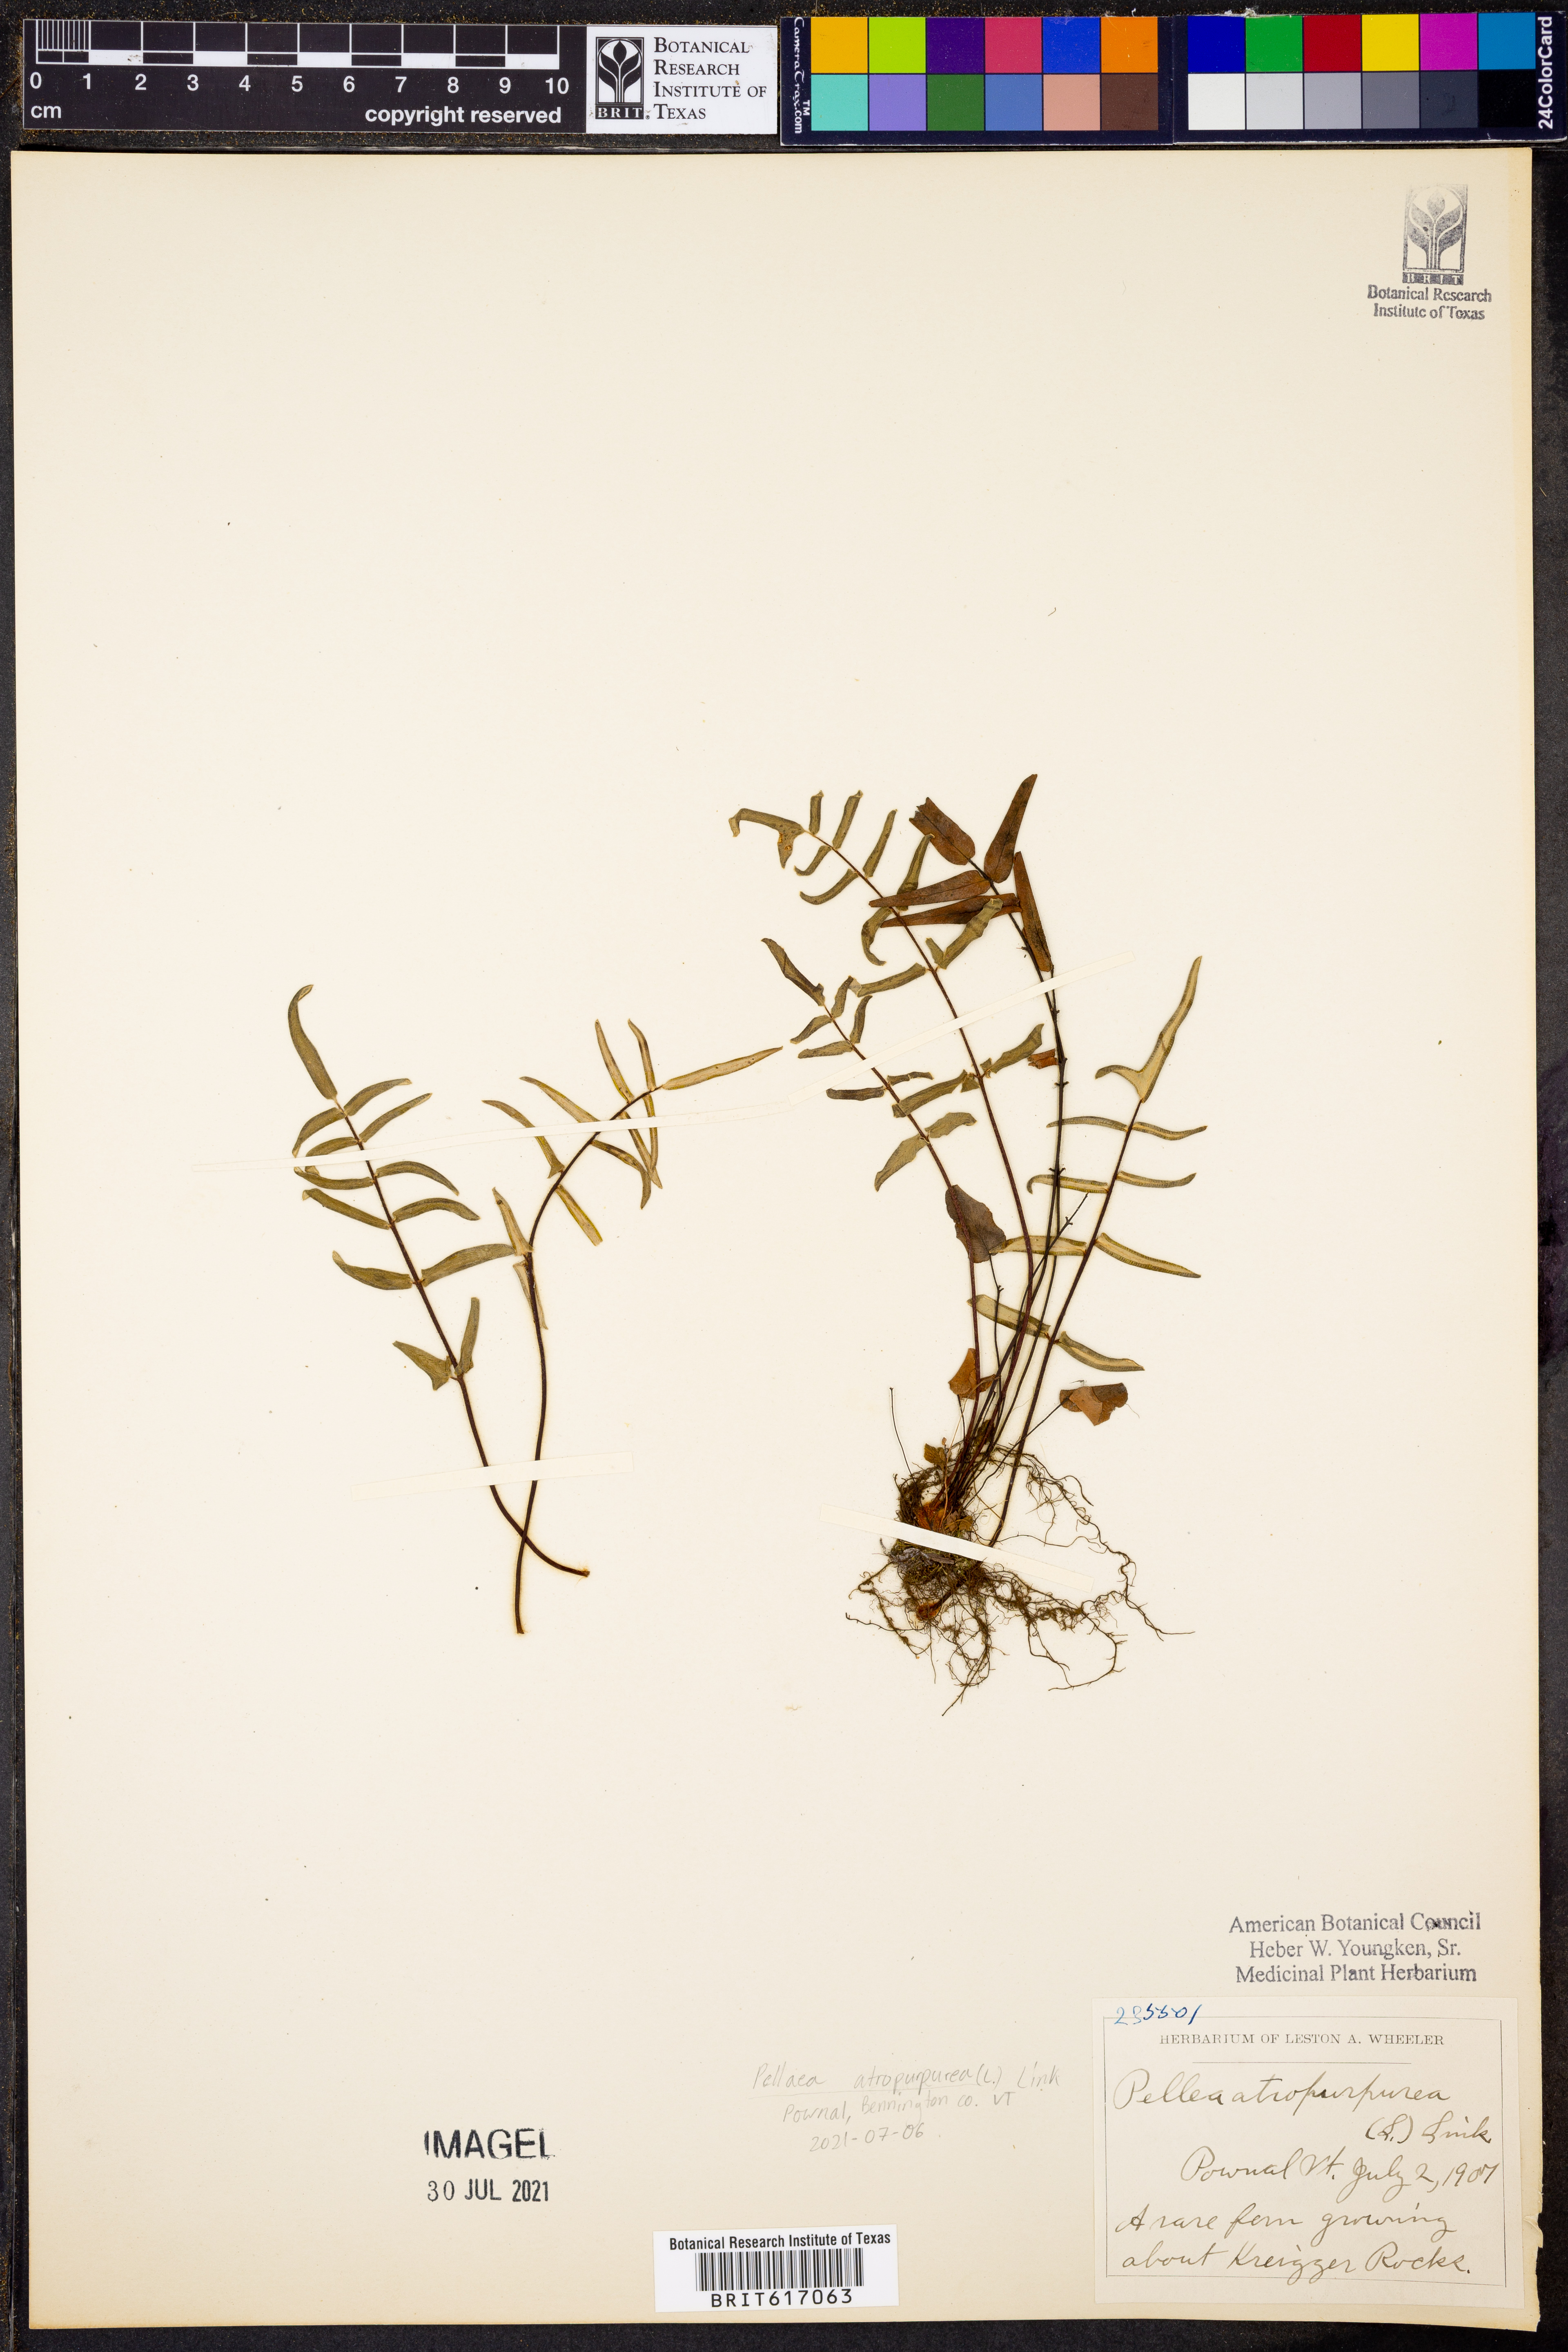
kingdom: Plantae
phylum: Tracheophyta
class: Polypodiopsida
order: Polypodiales
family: Pteridaceae
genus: Pellaea
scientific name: Pellaea atropurpurea
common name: Hairy cliffbrake
